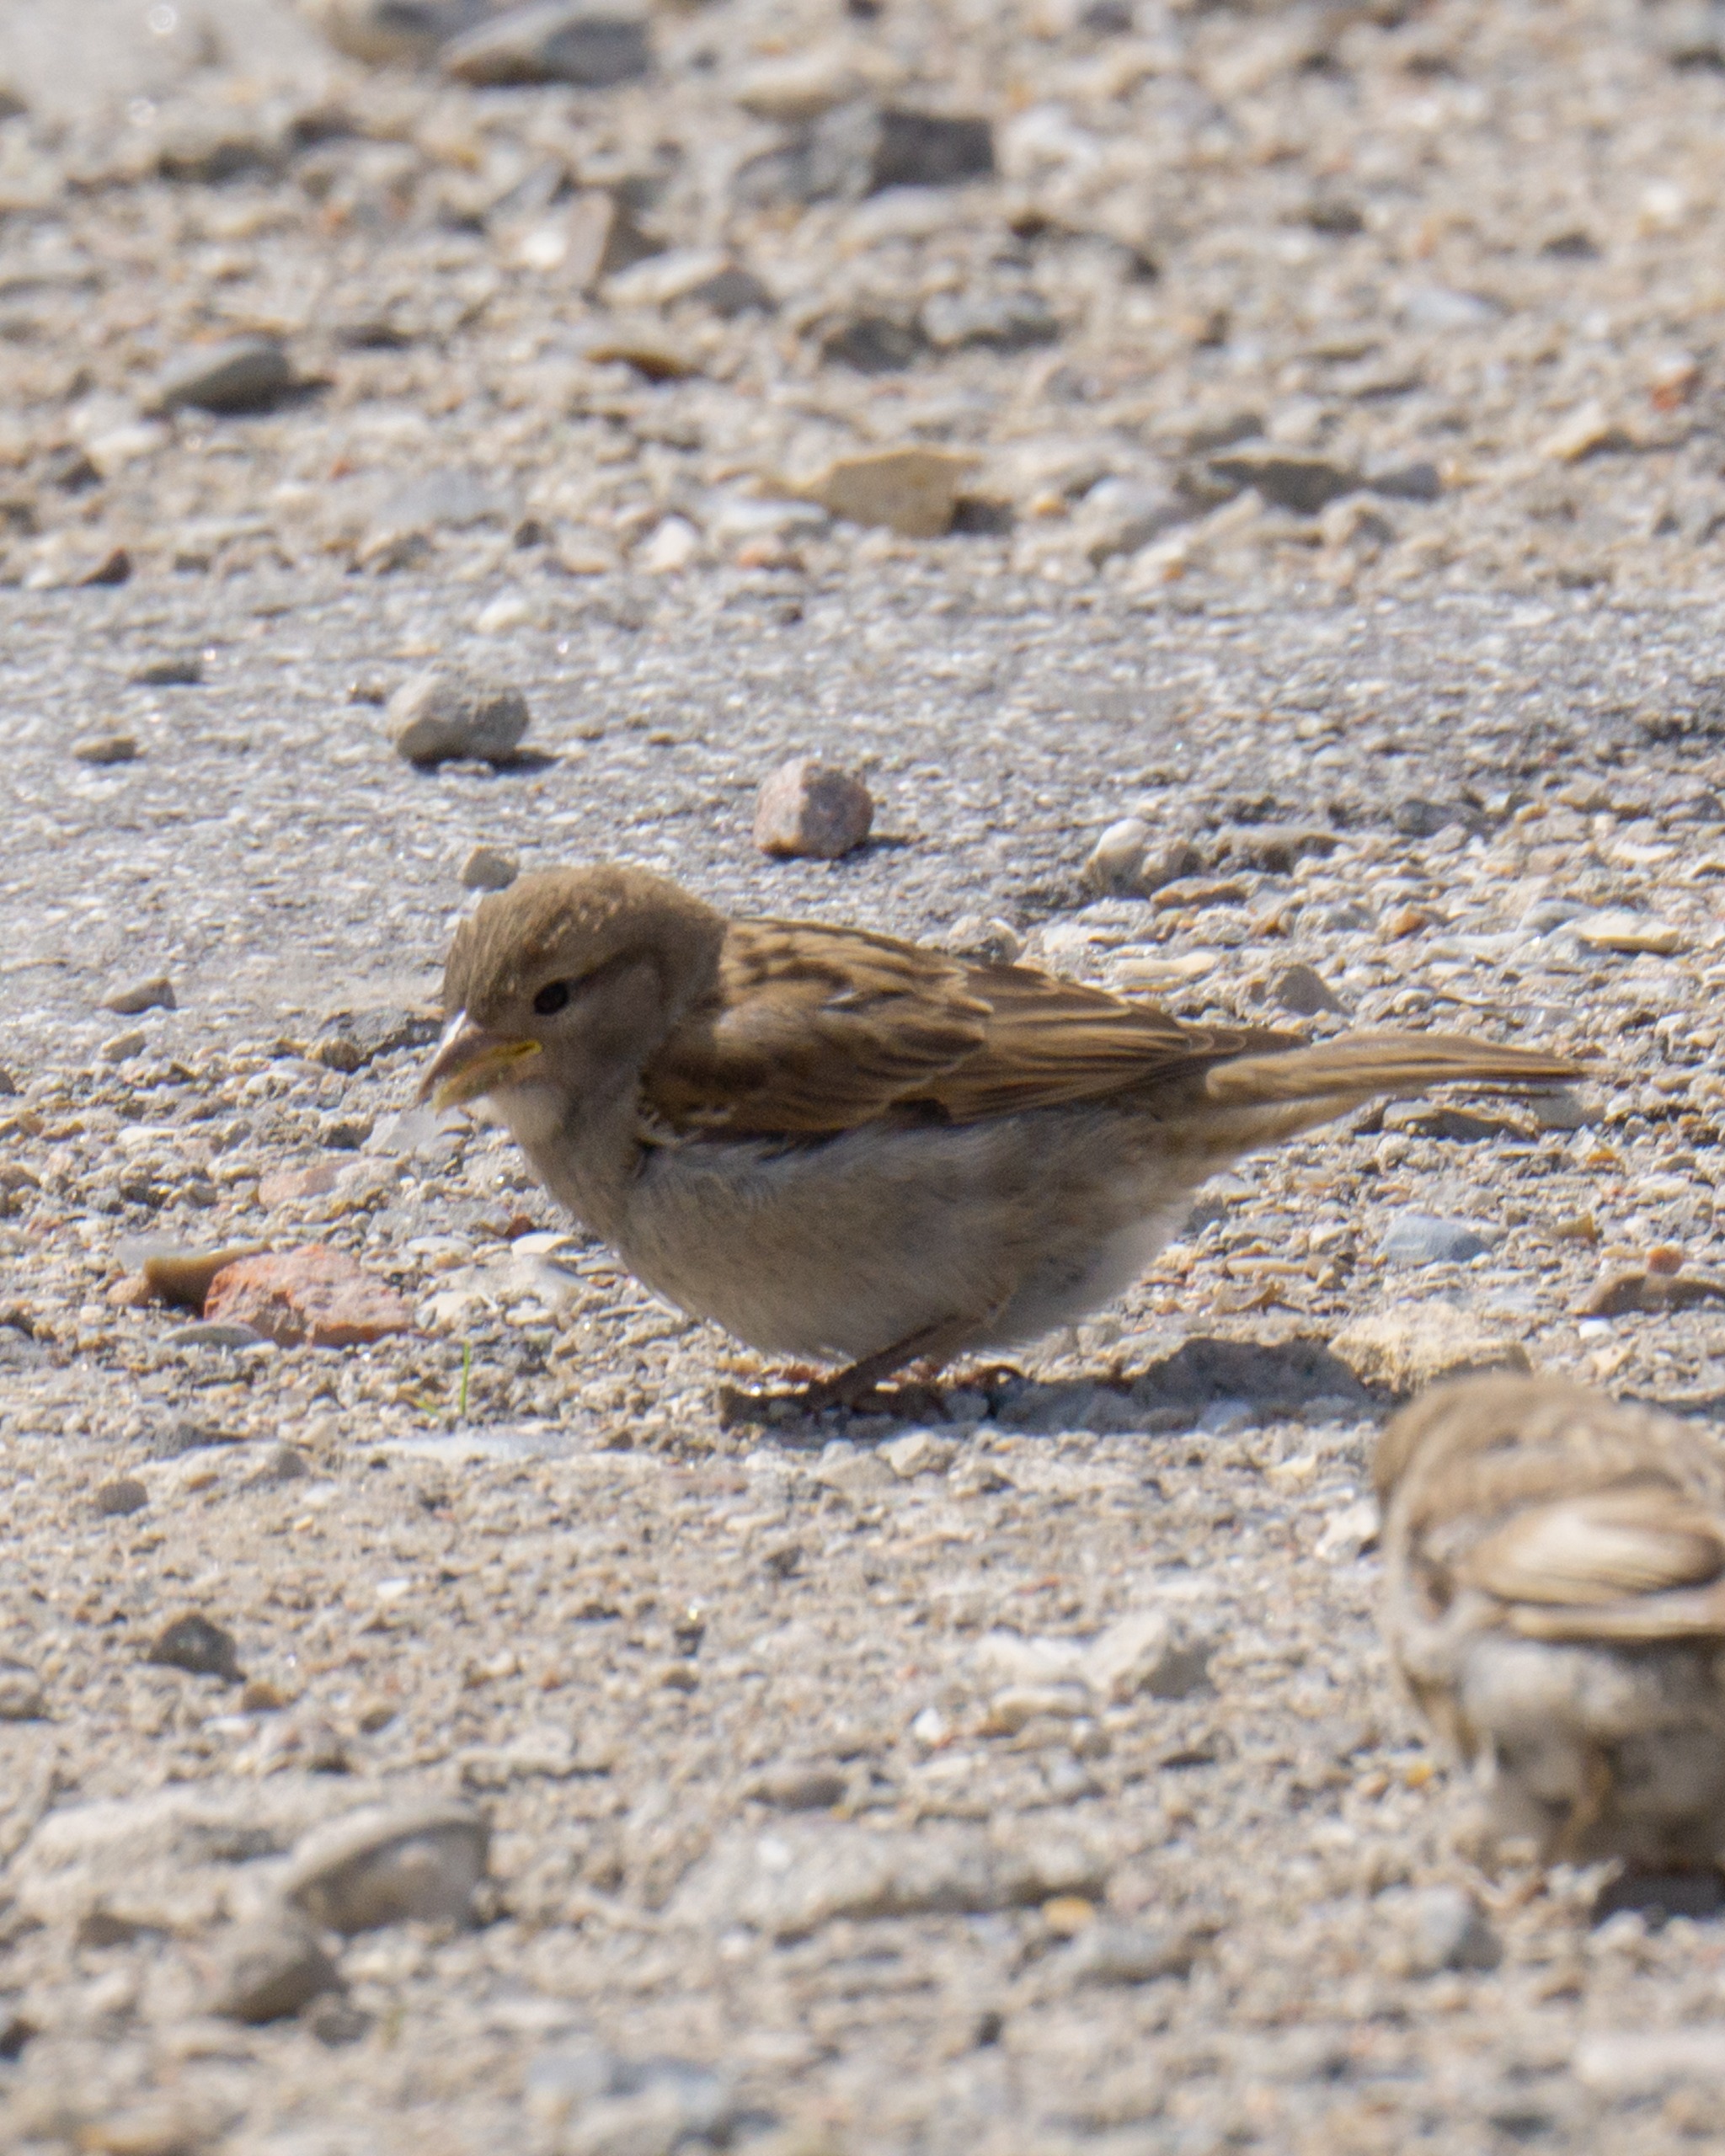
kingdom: Animalia
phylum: Chordata
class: Aves
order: Passeriformes
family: Passeridae
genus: Passer
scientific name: Passer domesticus
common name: Gråspurv
